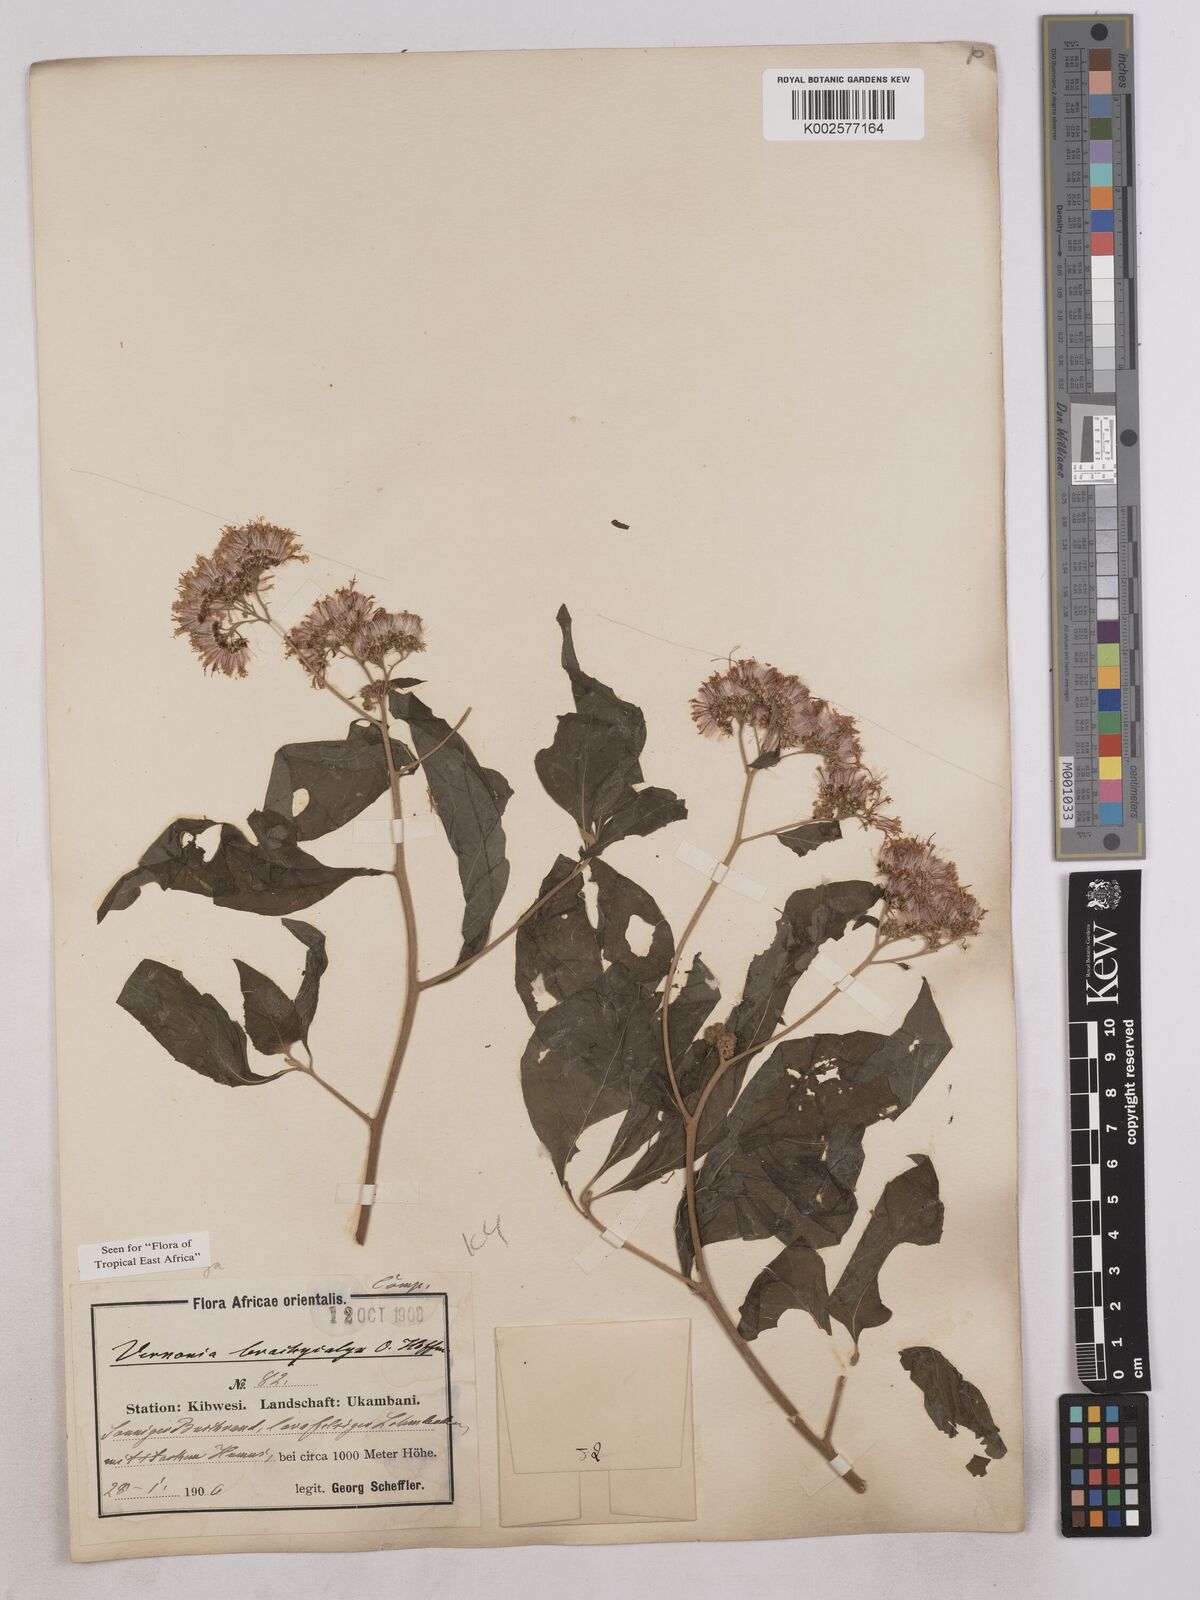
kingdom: Plantae
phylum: Tracheophyta
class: Magnoliopsida
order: Asterales
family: Asteraceae
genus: Hoffmannanthus
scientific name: Hoffmannanthus abbotianus
